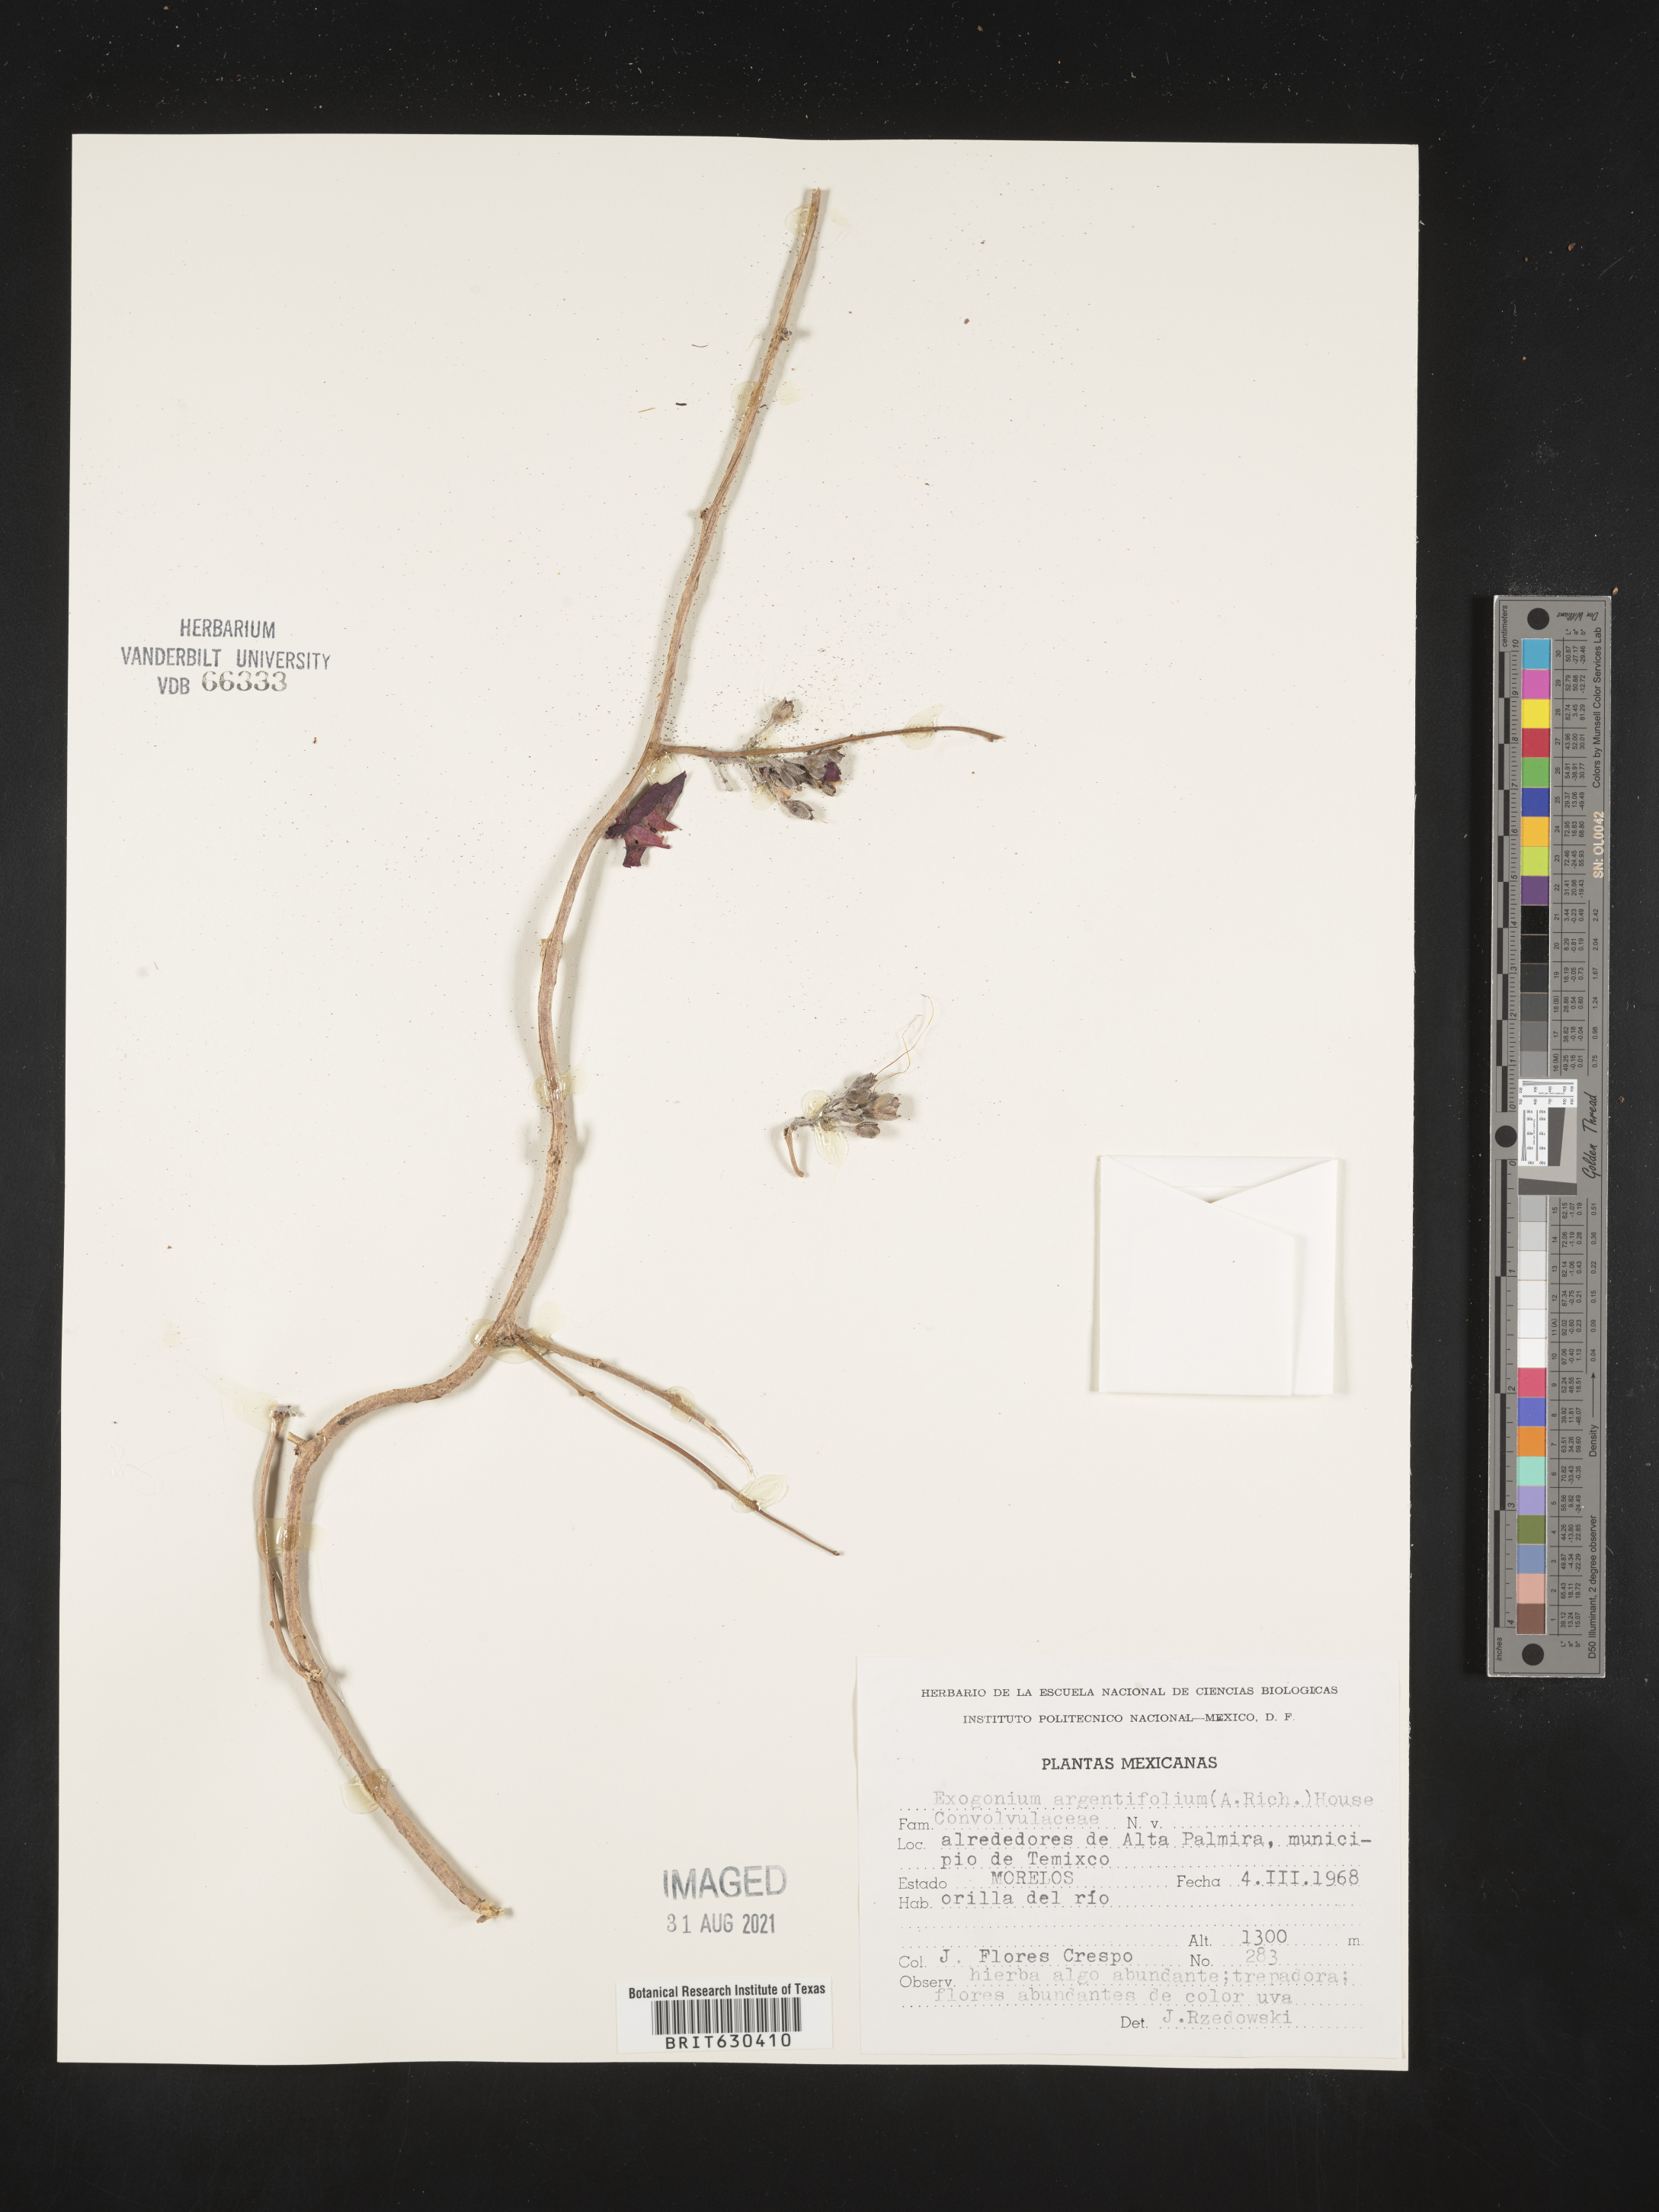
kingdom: Plantae
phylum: Tracheophyta
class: Magnoliopsida
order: Solanales
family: Convolvulaceae
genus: Ipomoea
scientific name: Ipomoea
